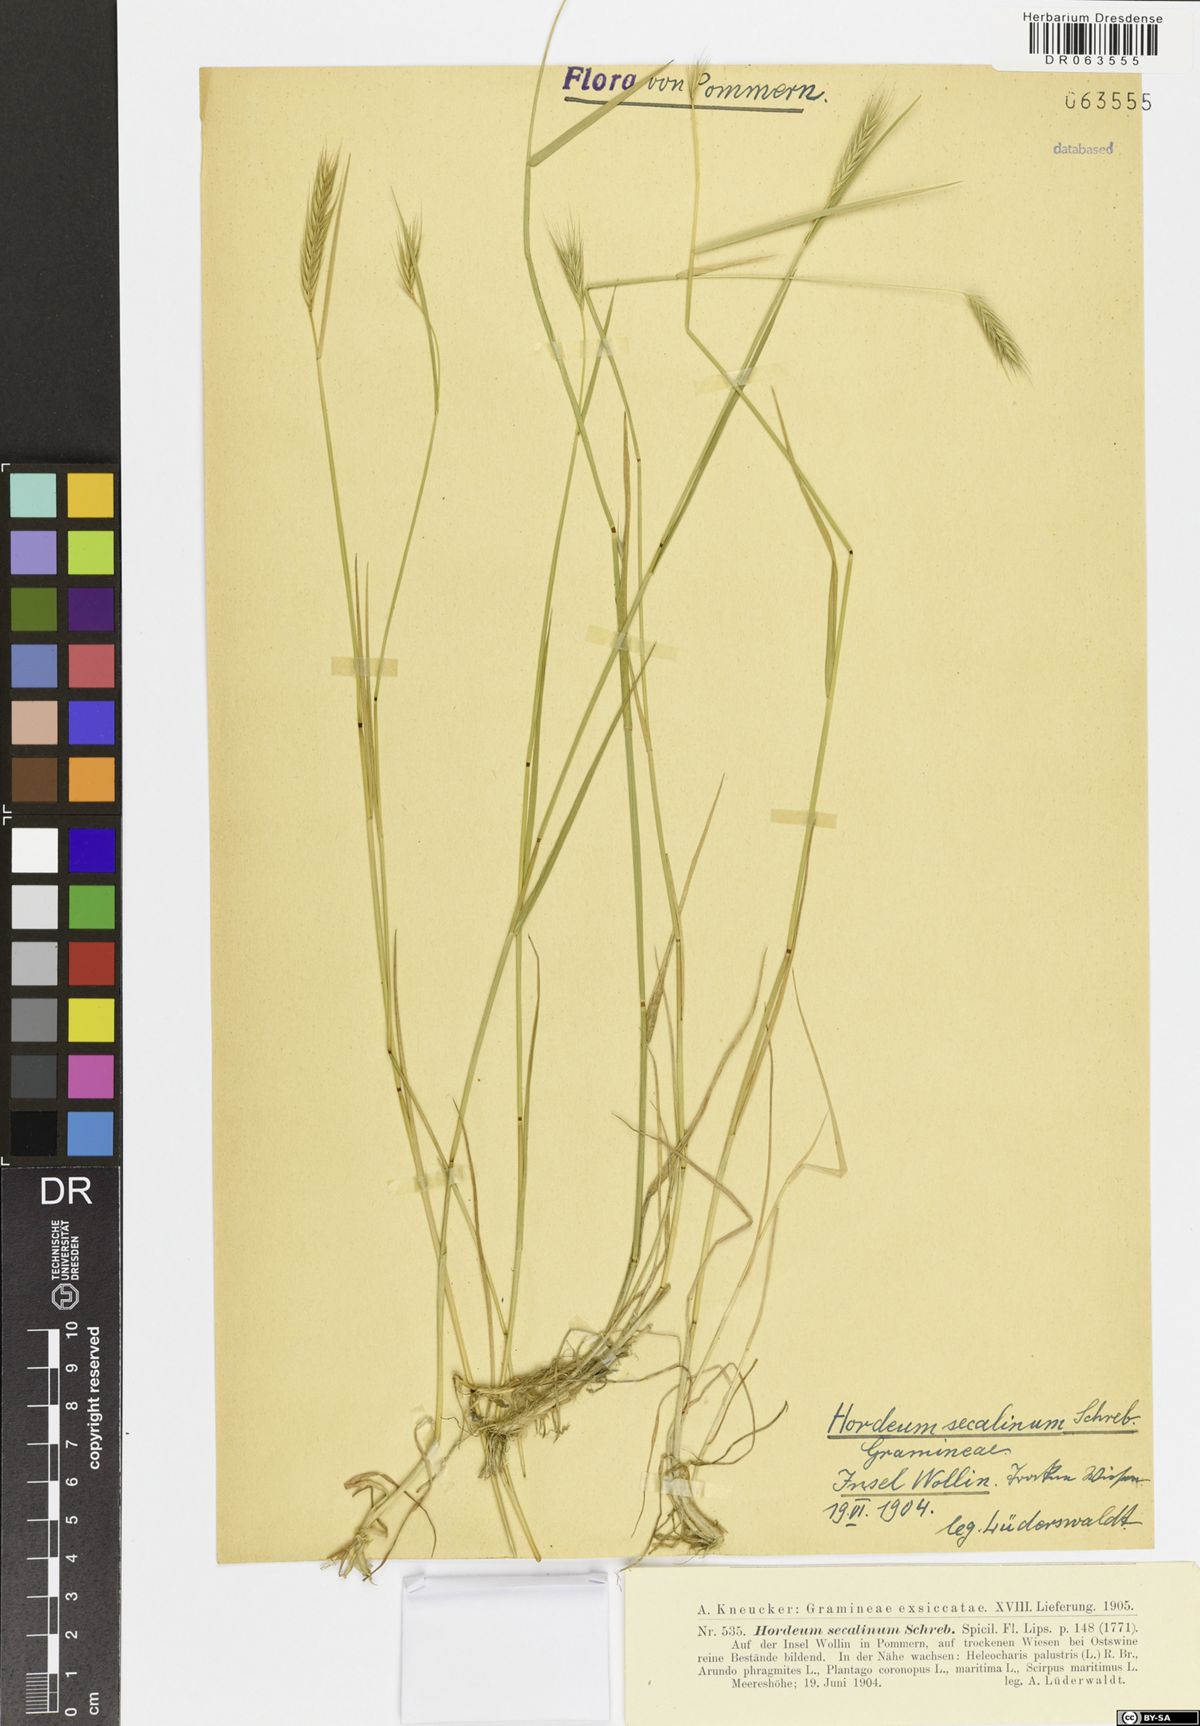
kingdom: Plantae
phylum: Tracheophyta
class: Liliopsida
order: Poales
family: Poaceae
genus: Hordeum
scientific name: Hordeum secalinum
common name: Meadow barley
